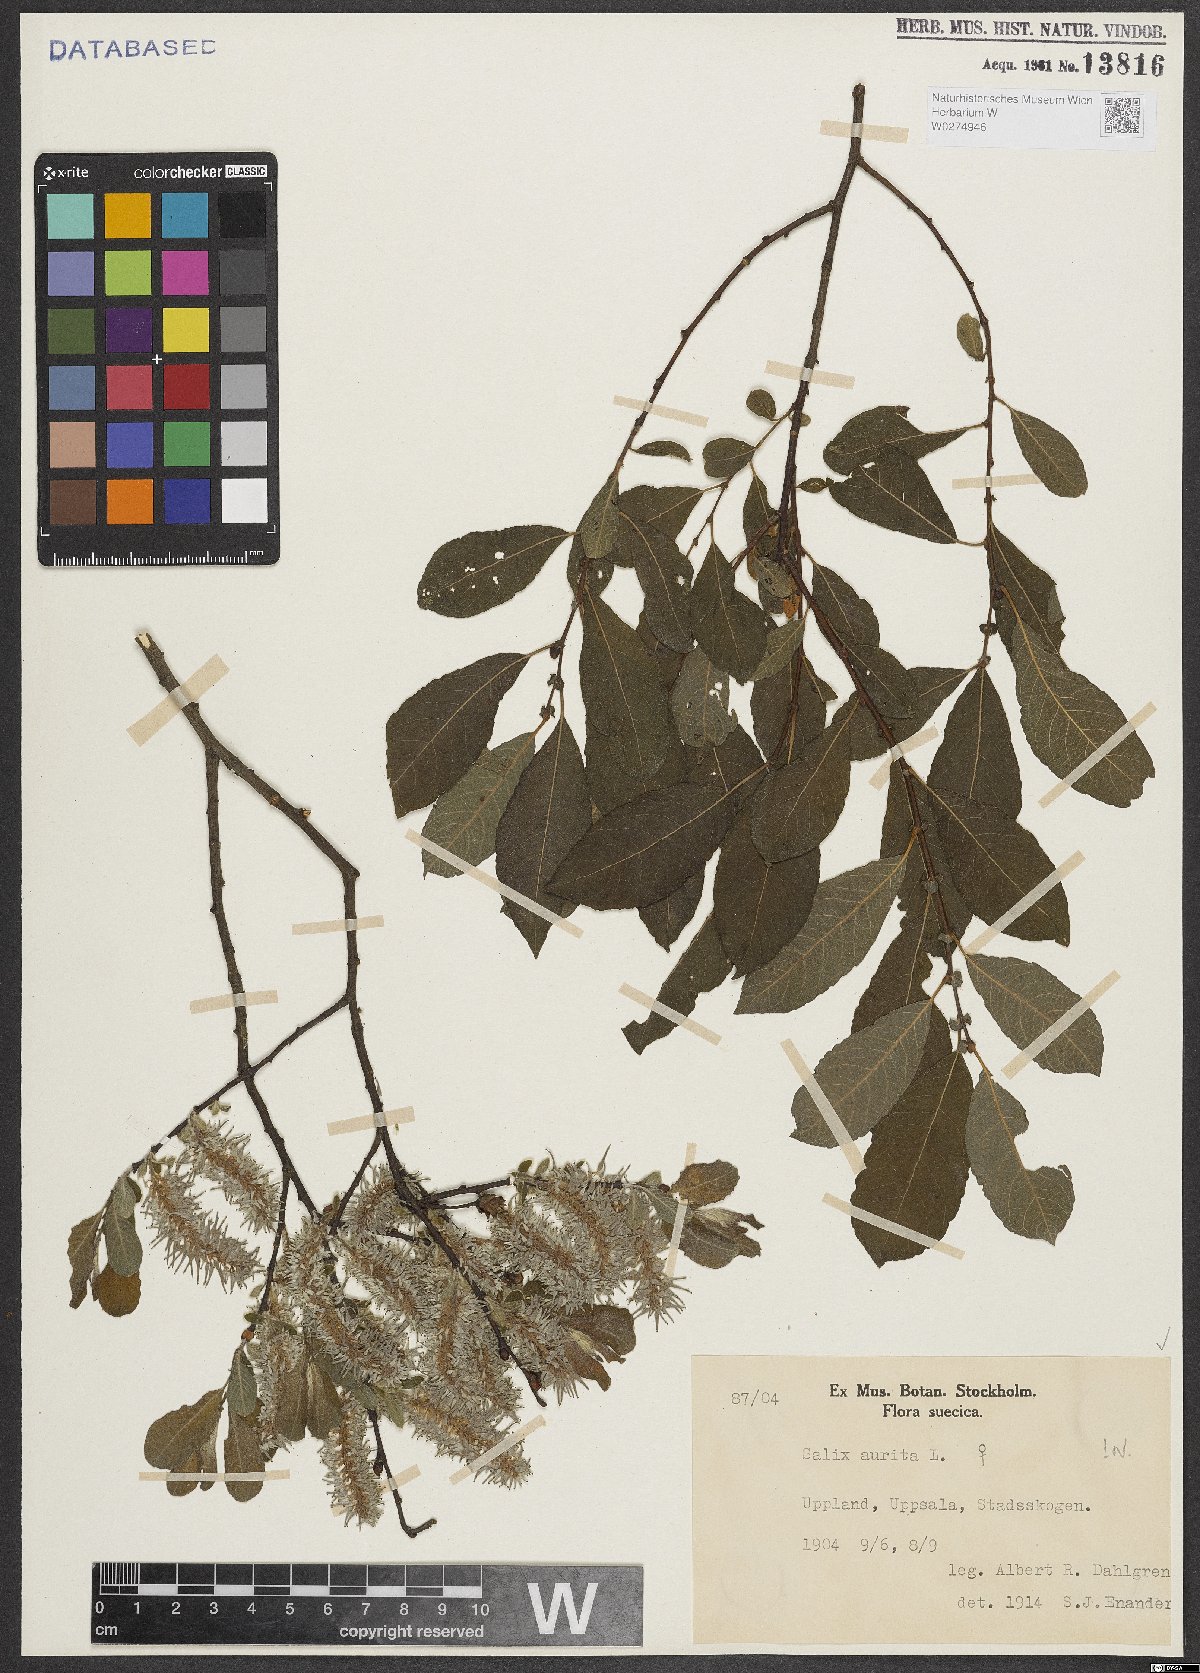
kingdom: Plantae
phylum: Tracheophyta
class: Magnoliopsida
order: Malpighiales
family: Salicaceae
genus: Salix
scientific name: Salix aurita
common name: Eared willow
